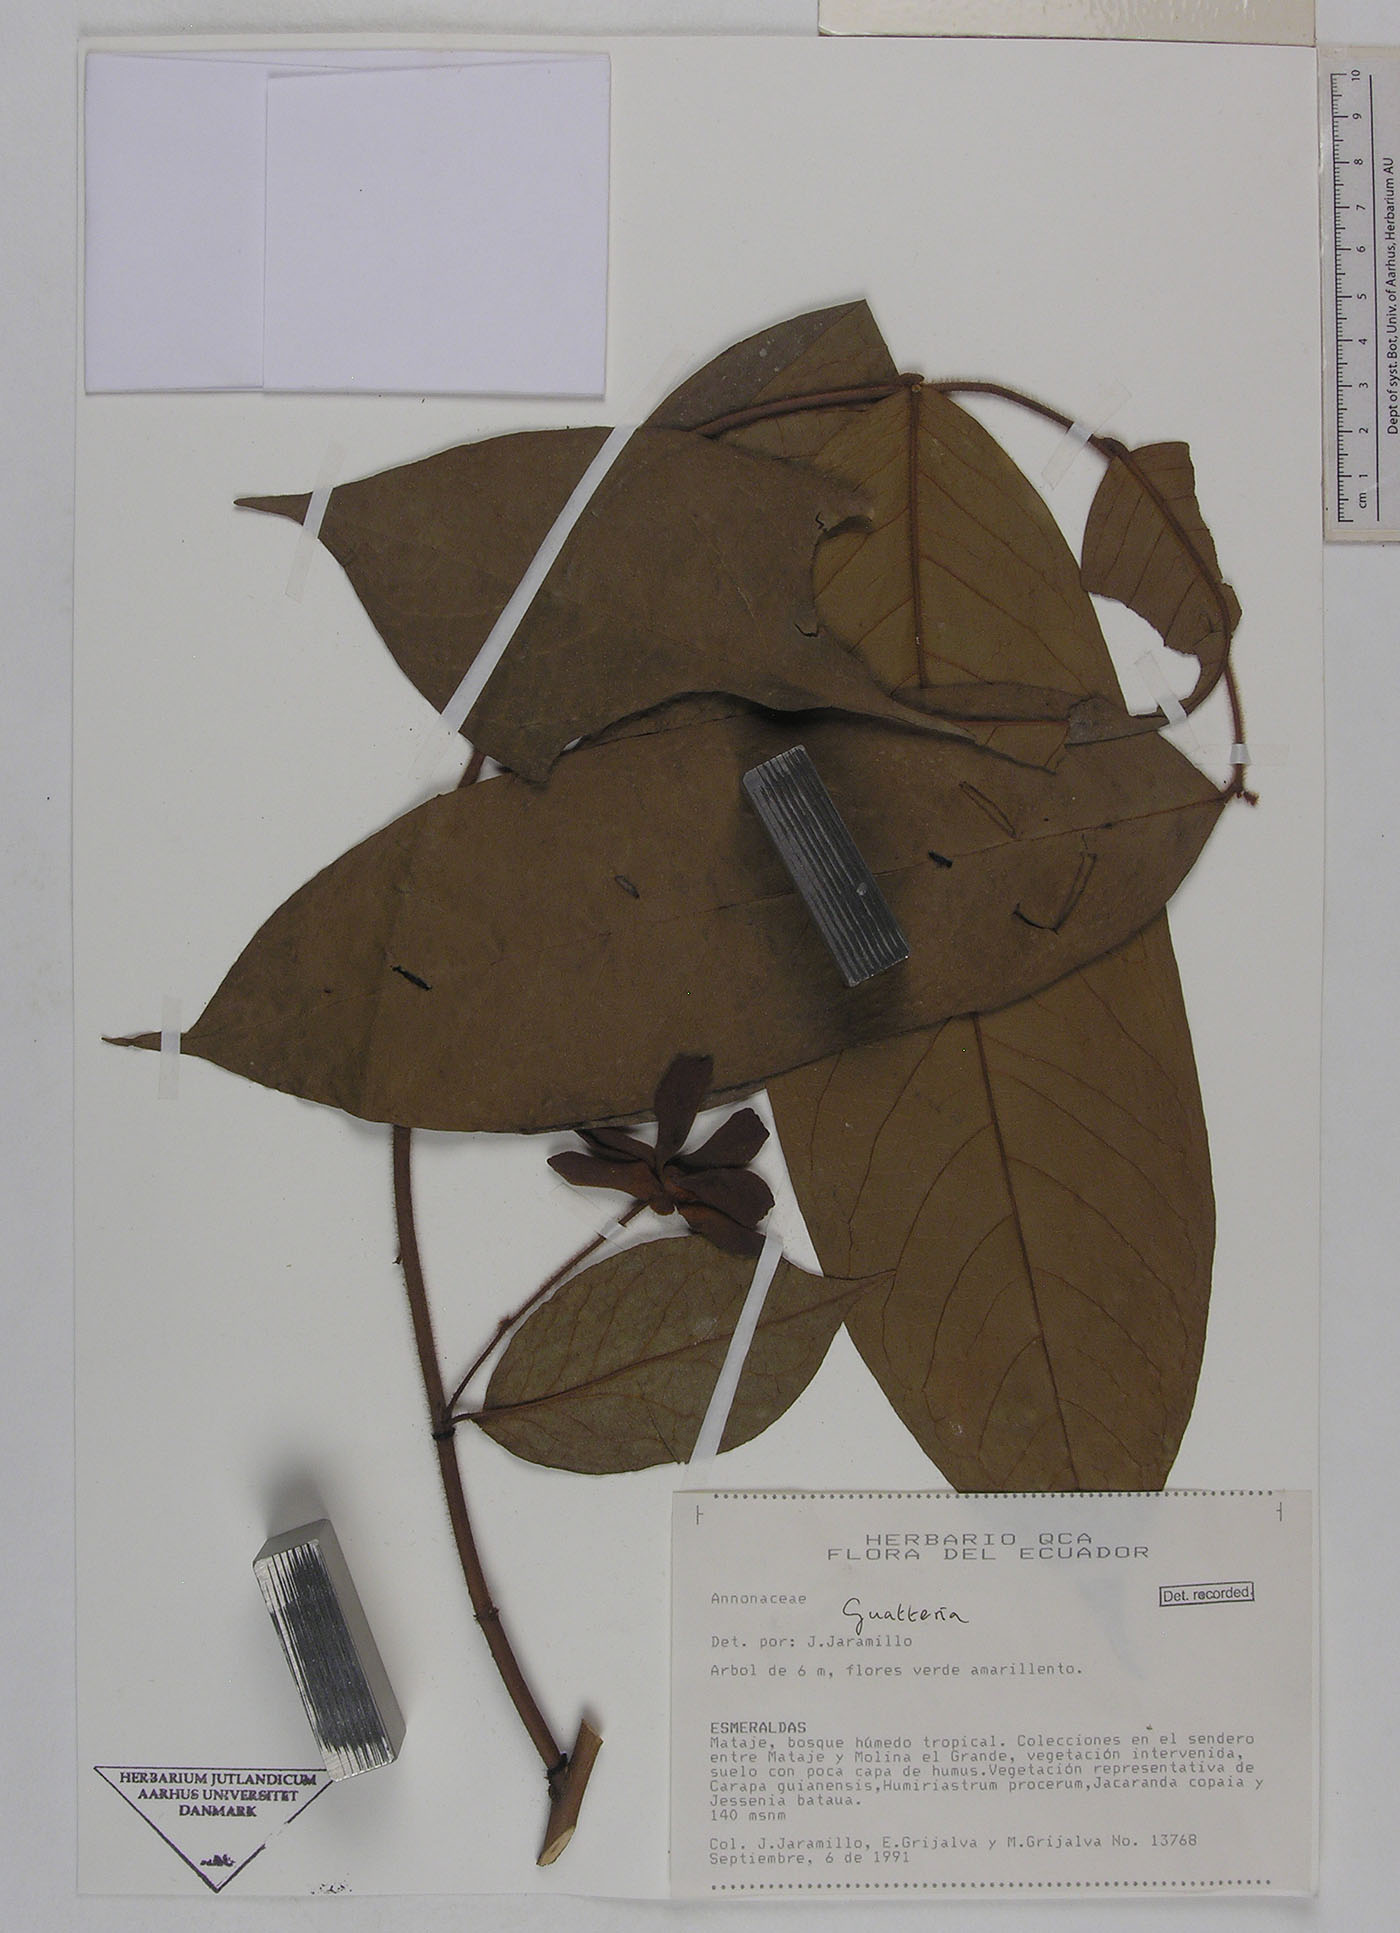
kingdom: Plantae
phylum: Tracheophyta
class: Magnoliopsida
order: Magnoliales
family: Annonaceae
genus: Guatteria
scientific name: Guatteria microcarpa
